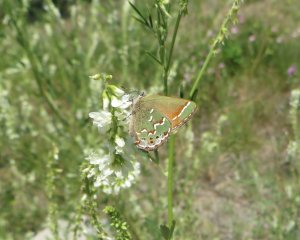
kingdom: Animalia
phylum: Arthropoda
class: Insecta
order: Lepidoptera
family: Lycaenidae
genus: Mitoura
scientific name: Mitoura gryneus
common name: Juniper Hairstreak
